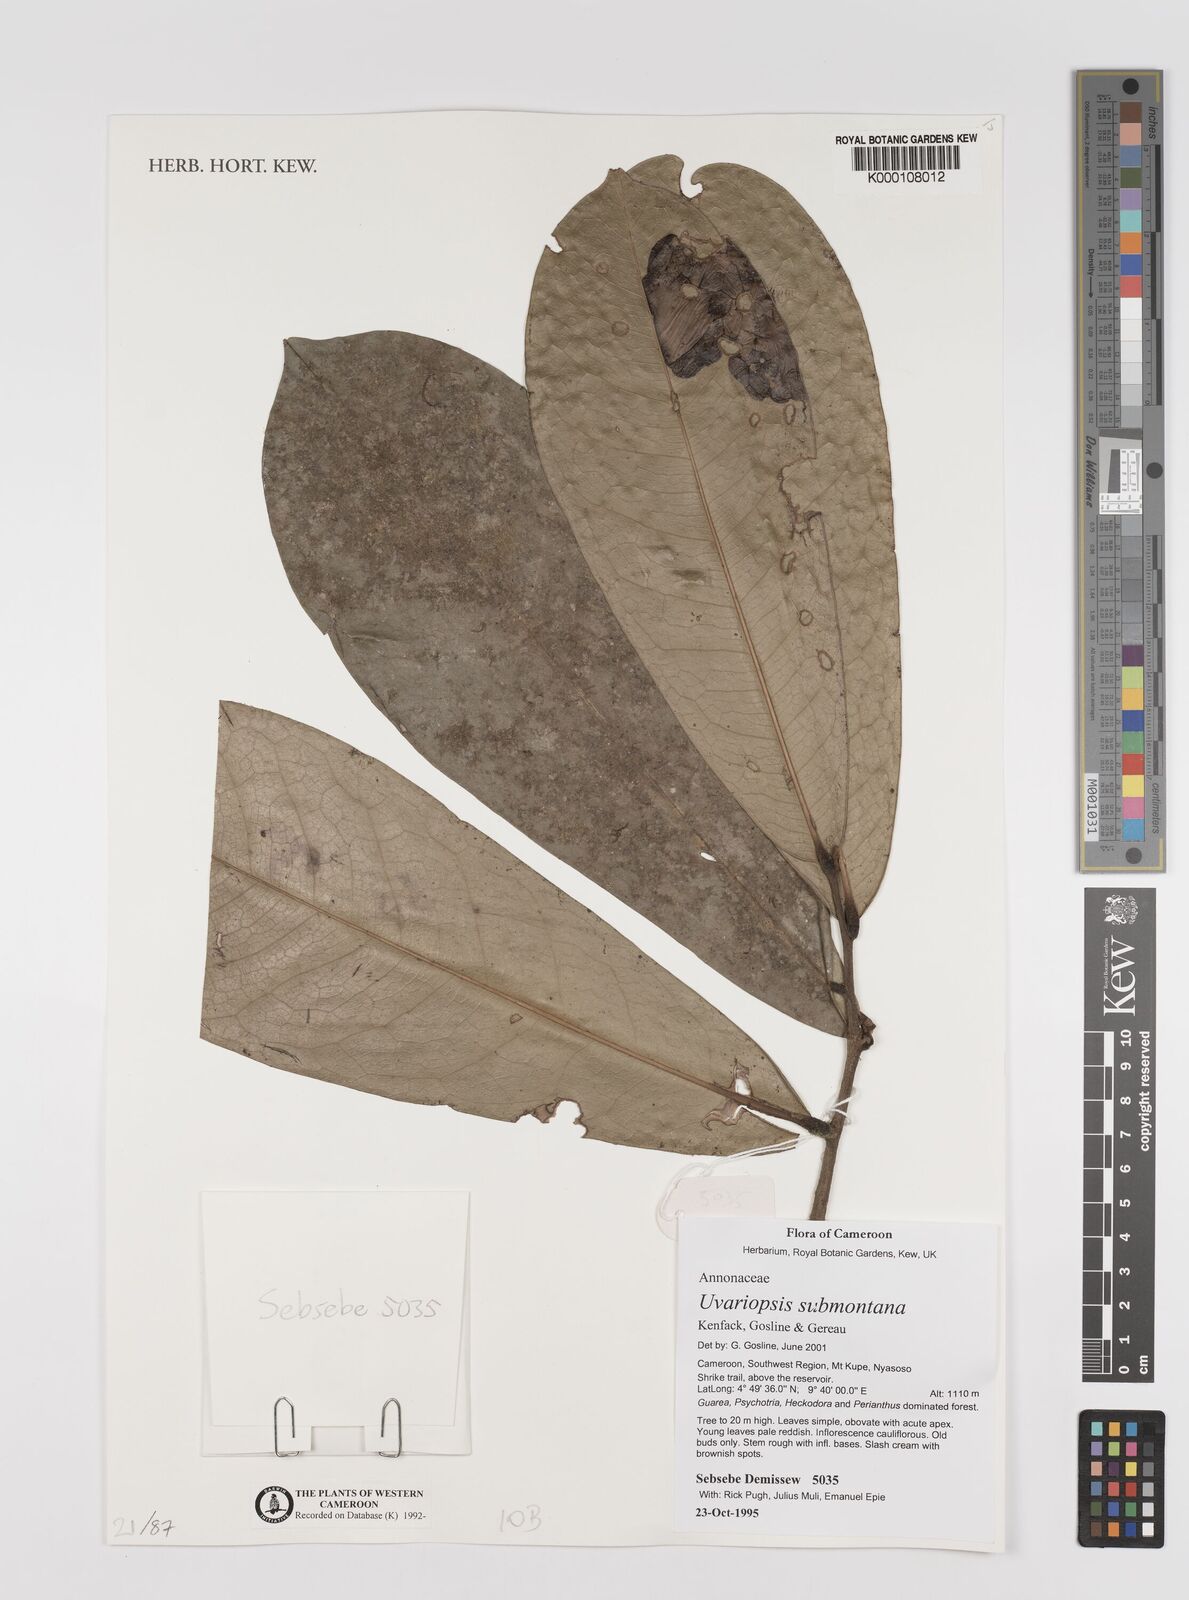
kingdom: Plantae
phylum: Tracheophyta
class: Magnoliopsida
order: Magnoliales
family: Annonaceae
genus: Uvariopsis
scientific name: Uvariopsis submontana
